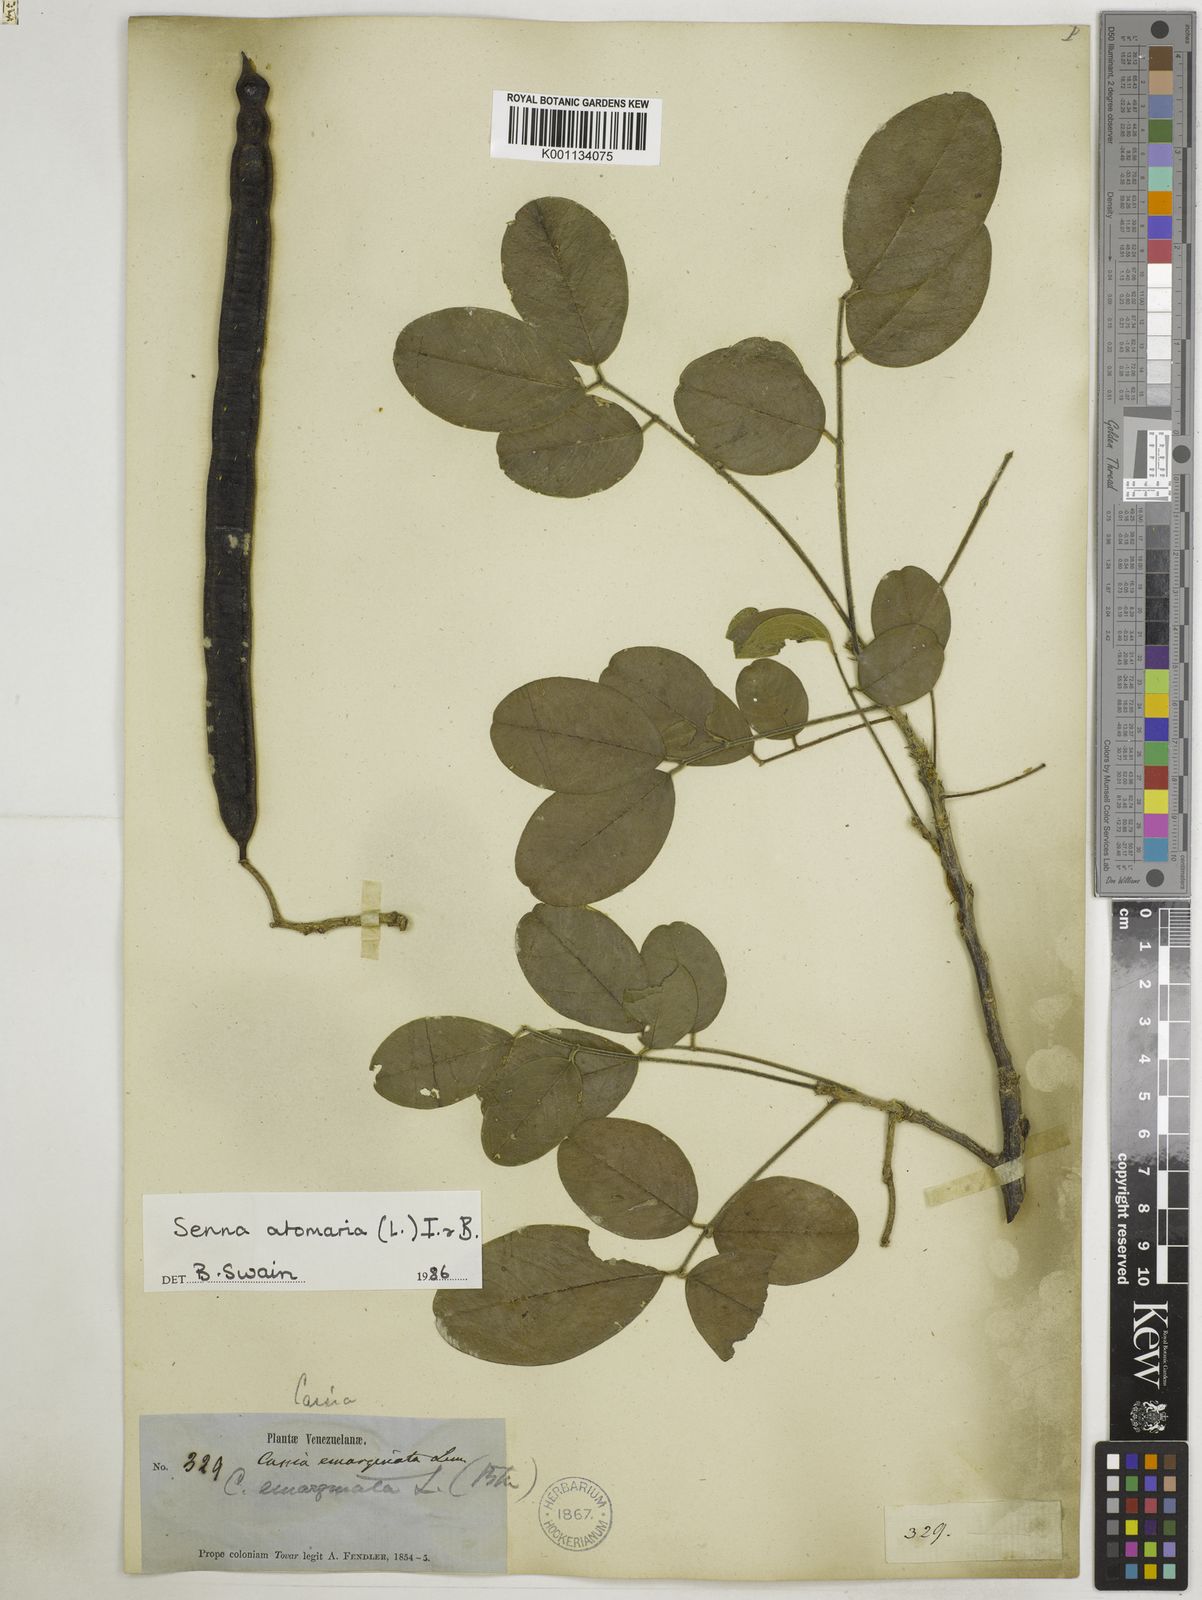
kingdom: Plantae
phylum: Tracheophyta
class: Magnoliopsida
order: Fabales
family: Fabaceae
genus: Senna
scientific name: Senna atomaria
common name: Flor de san jose
